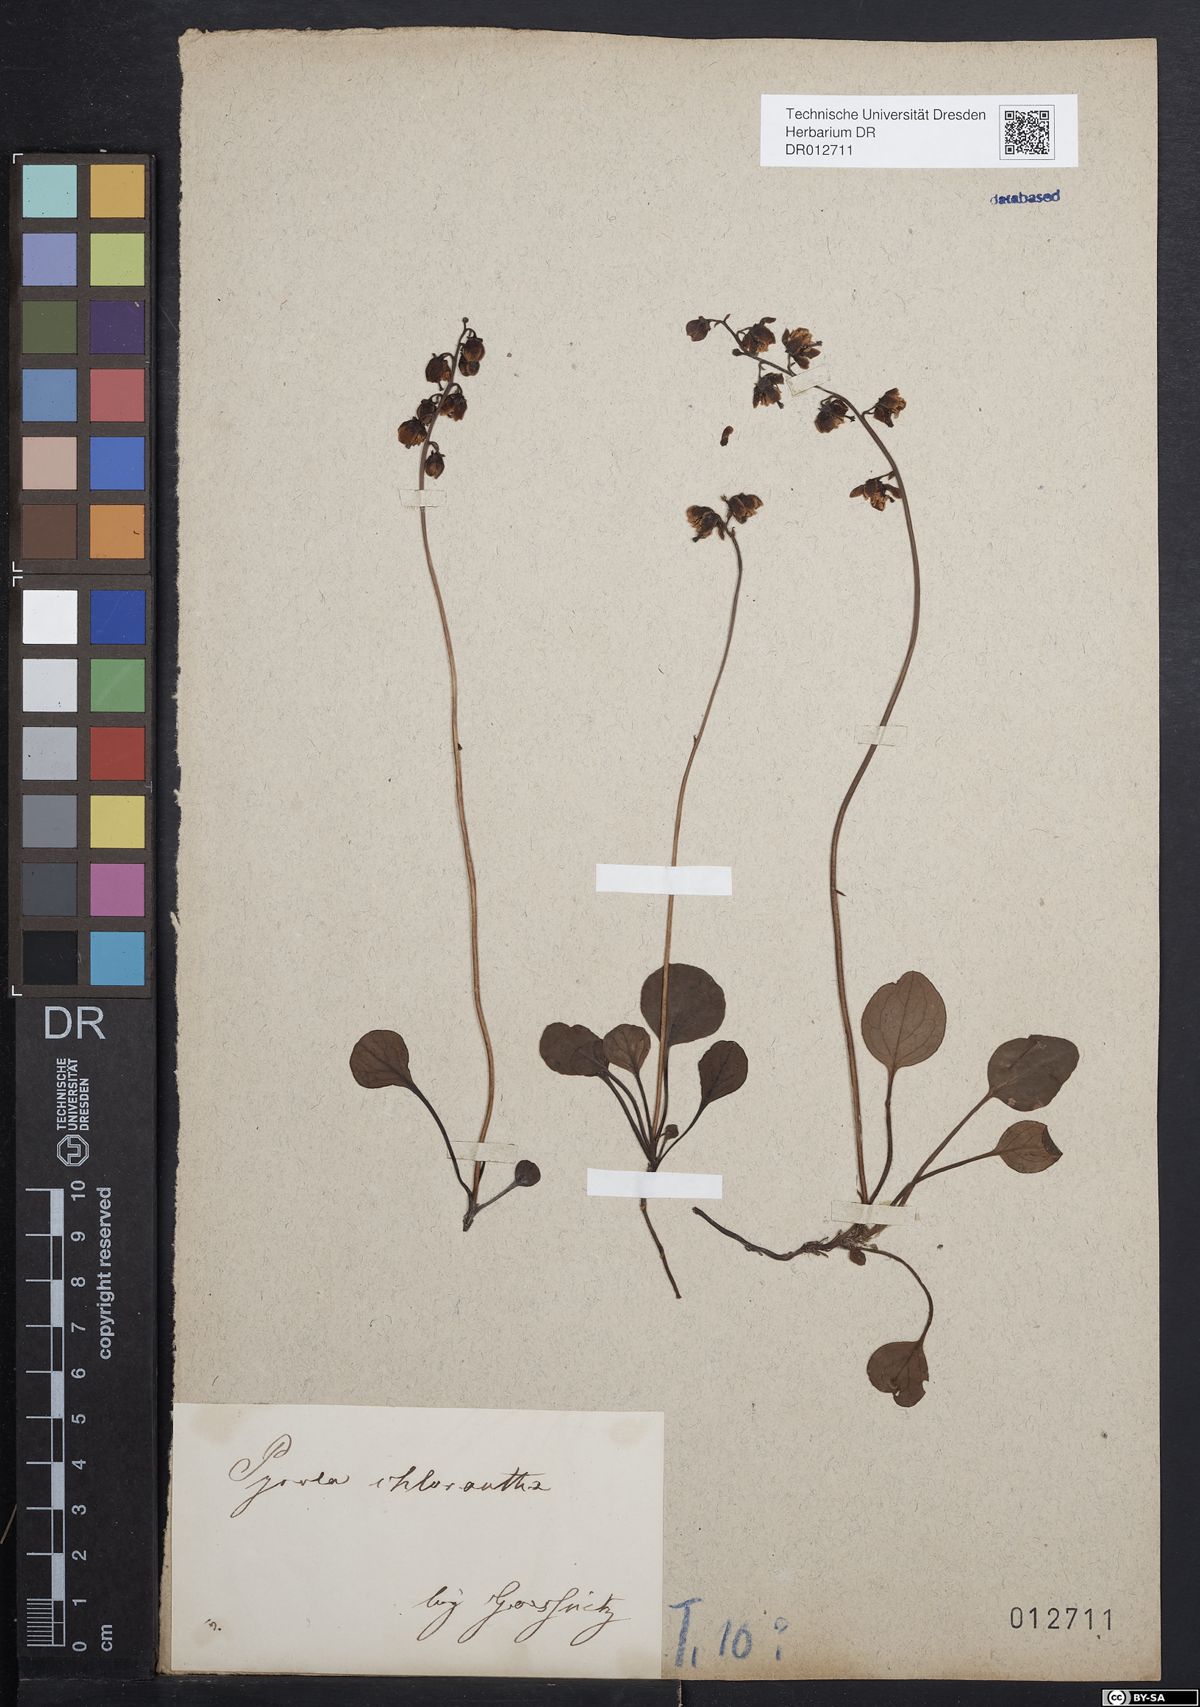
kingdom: Plantae
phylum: Tracheophyta
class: Magnoliopsida
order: Ericales
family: Ericaceae
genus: Pyrola
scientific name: Pyrola chlorantha
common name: Green wintergreen
